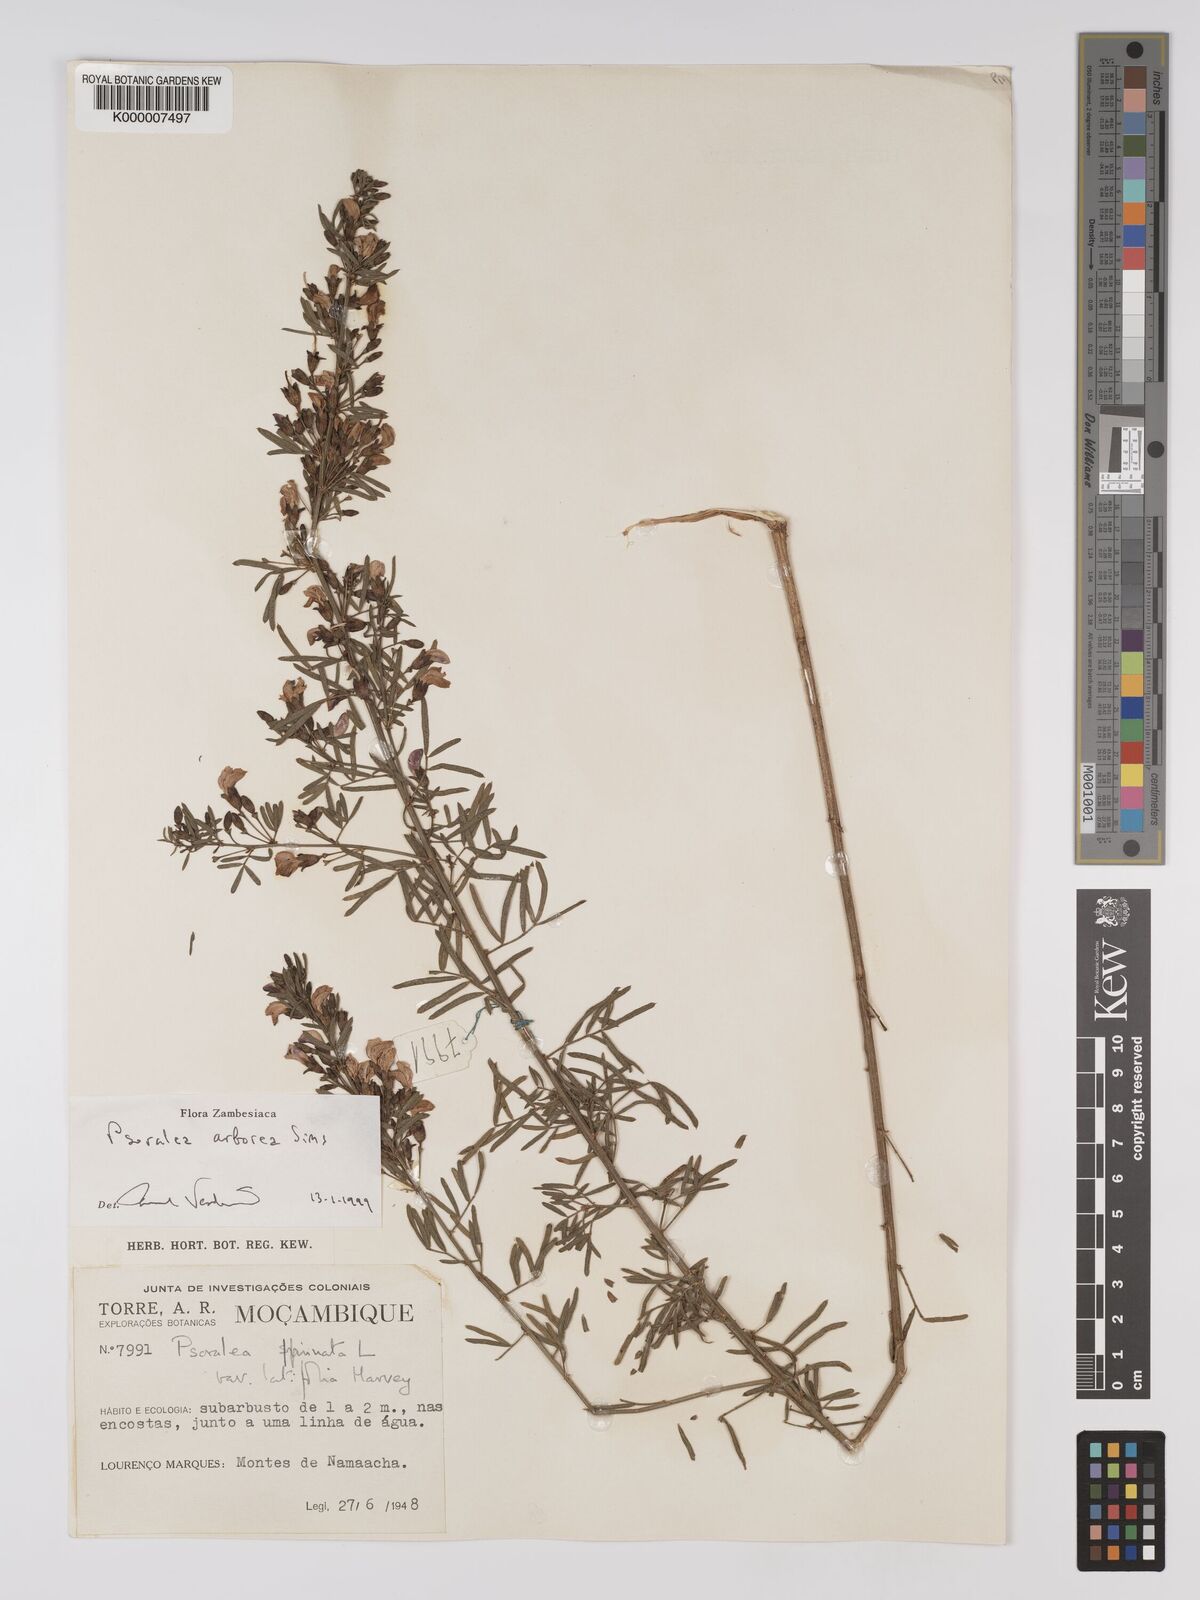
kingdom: Plantae
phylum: Tracheophyta
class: Magnoliopsida
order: Fabales
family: Fabaceae
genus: Psoralea
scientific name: Psoralea arborea
